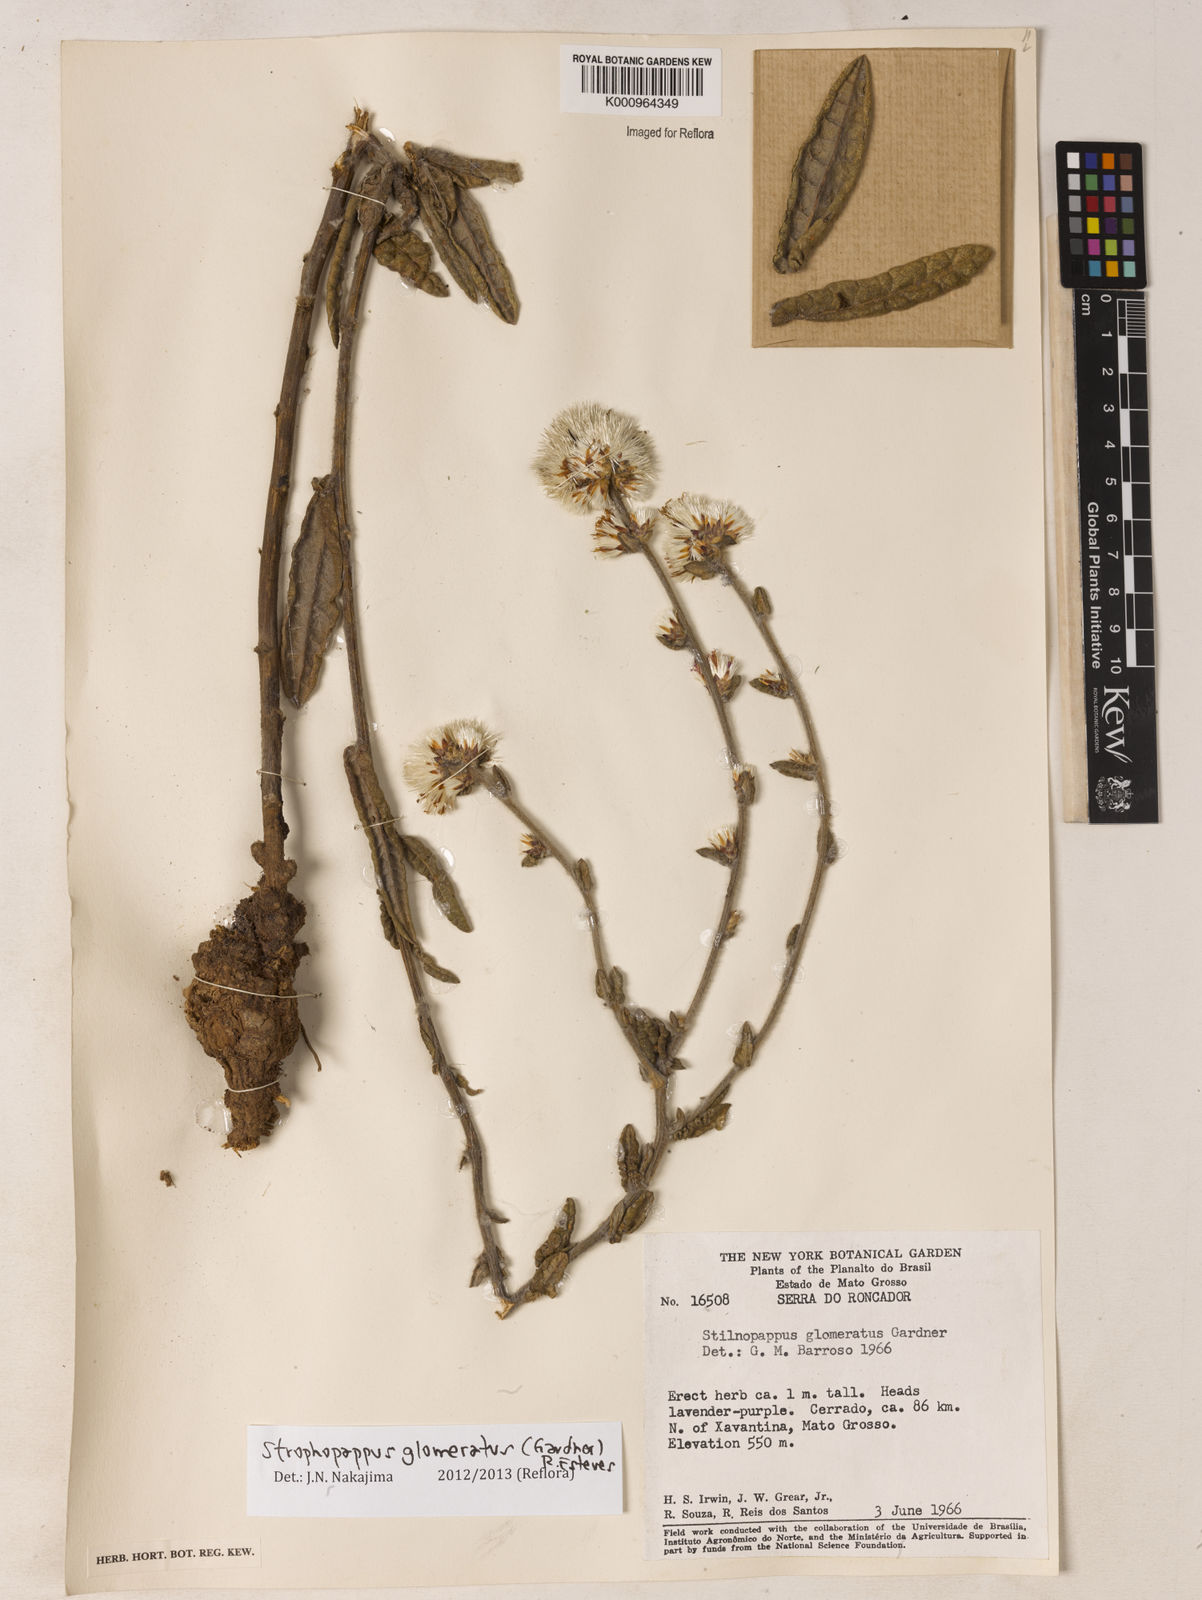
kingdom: Plantae
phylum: Tracheophyta
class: Magnoliopsida
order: Asterales
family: Asteraceae
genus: Stilpnopappus
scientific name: Stilpnopappus glomeratus
